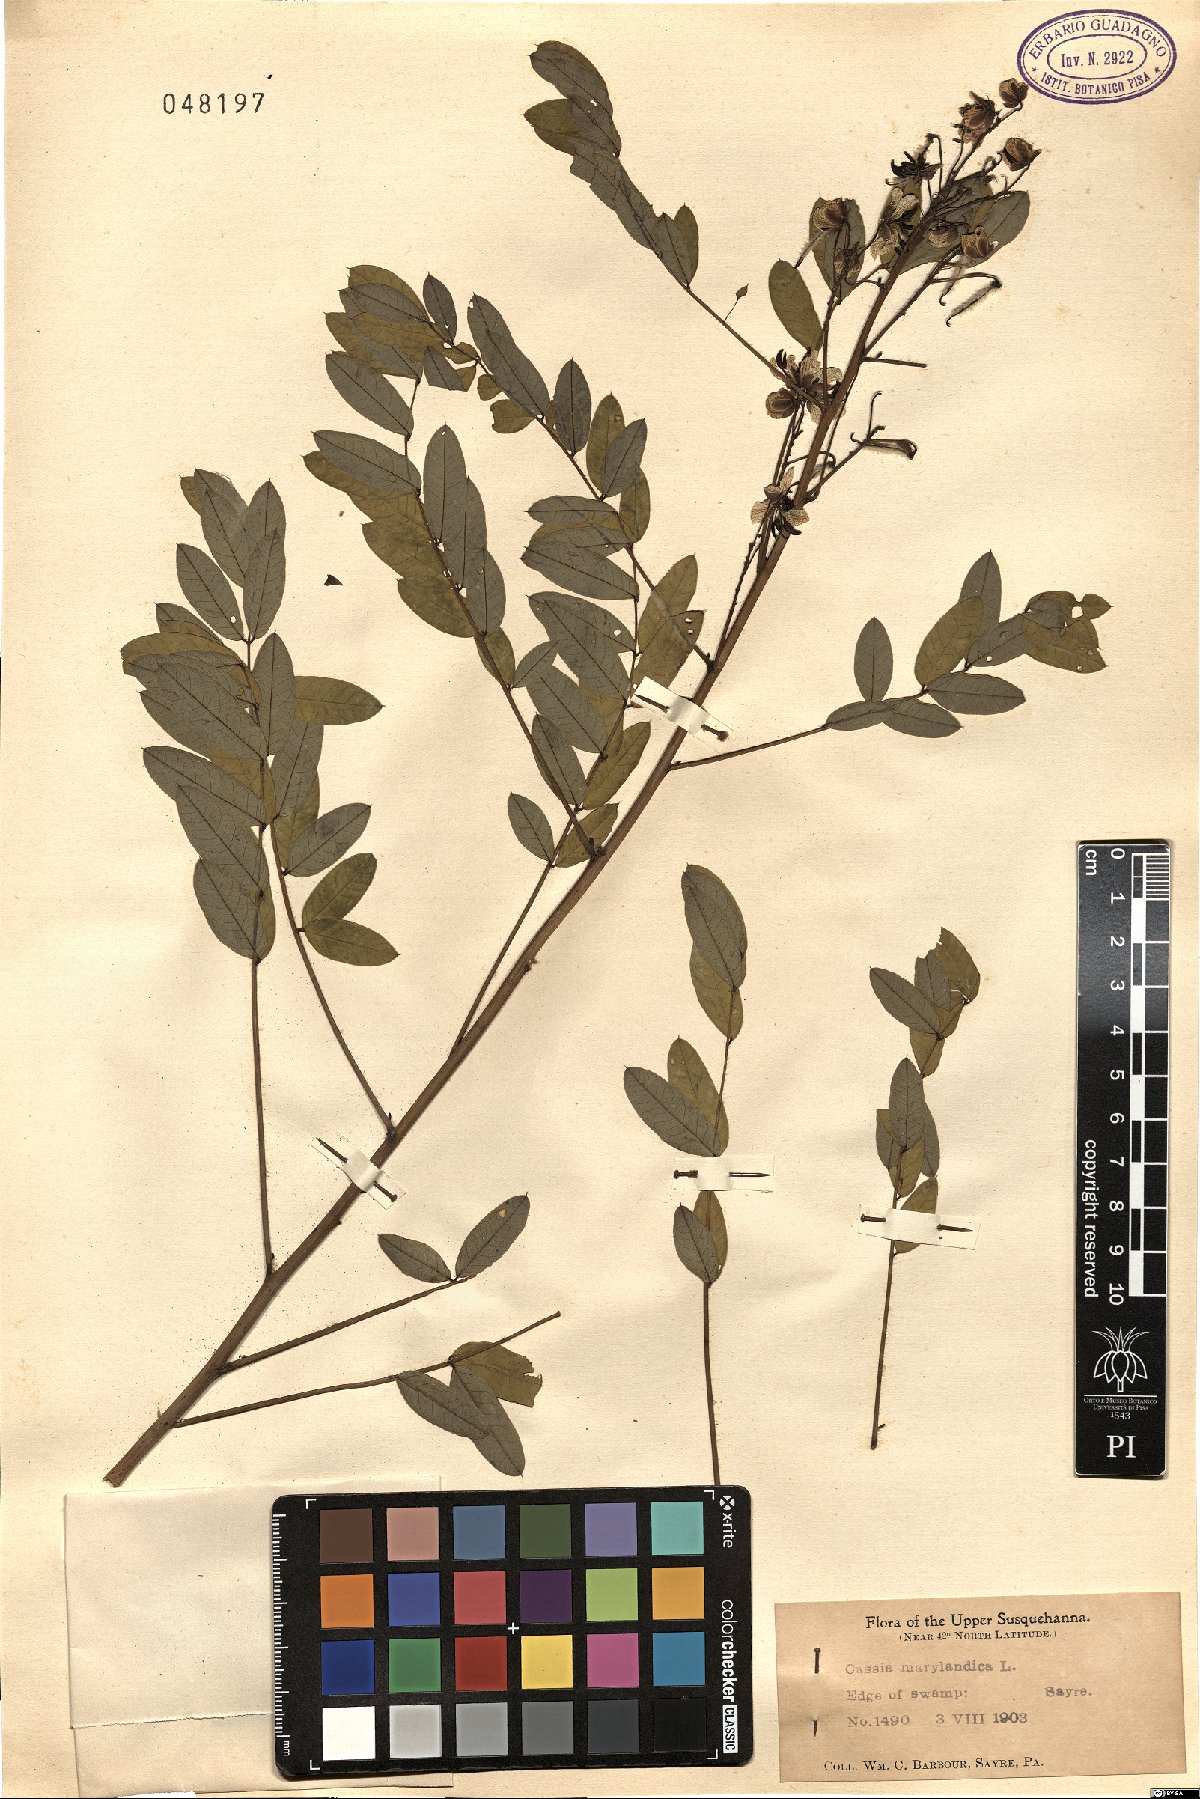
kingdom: Plantae
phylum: Tracheophyta
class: Magnoliopsida
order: Fabales
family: Fabaceae
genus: Senna
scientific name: Senna marilandica
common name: American senna
